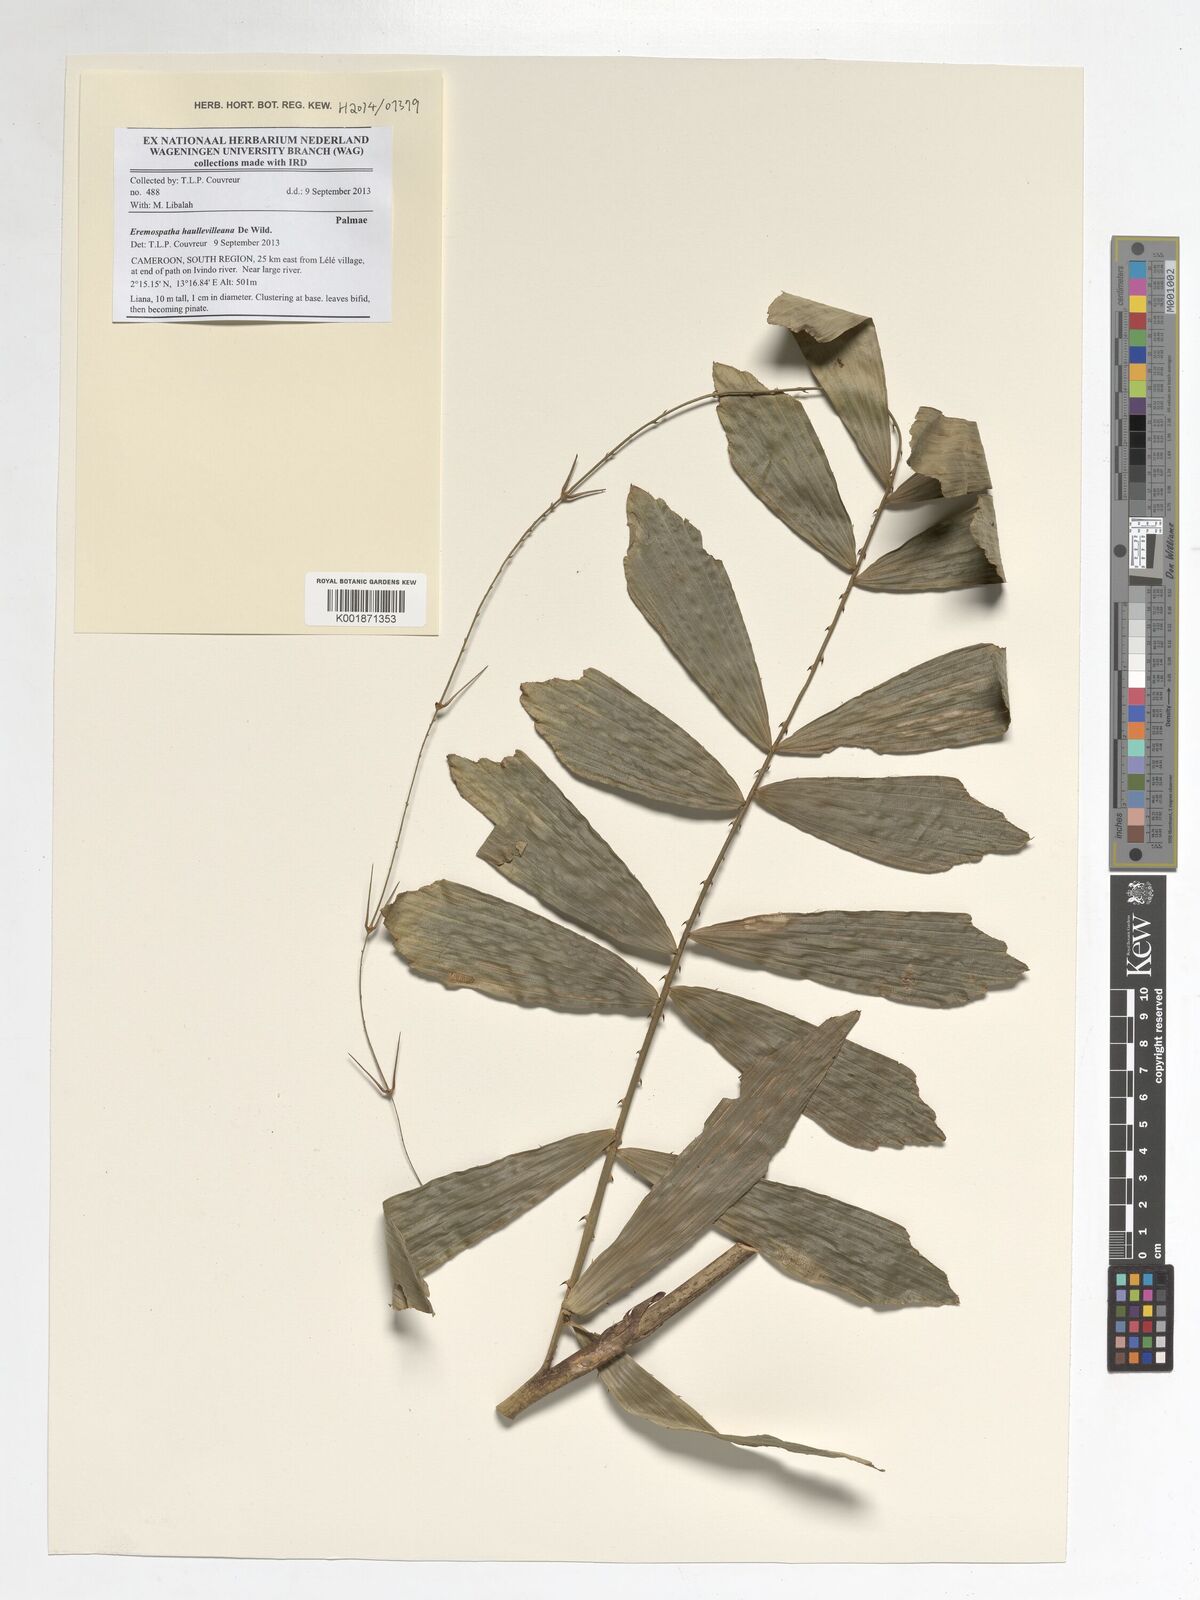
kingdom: Plantae
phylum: Tracheophyta
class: Liliopsida
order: Arecales
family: Arecaceae
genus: Eremospatha
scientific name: Eremospatha haullevilleana
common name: Rattan
